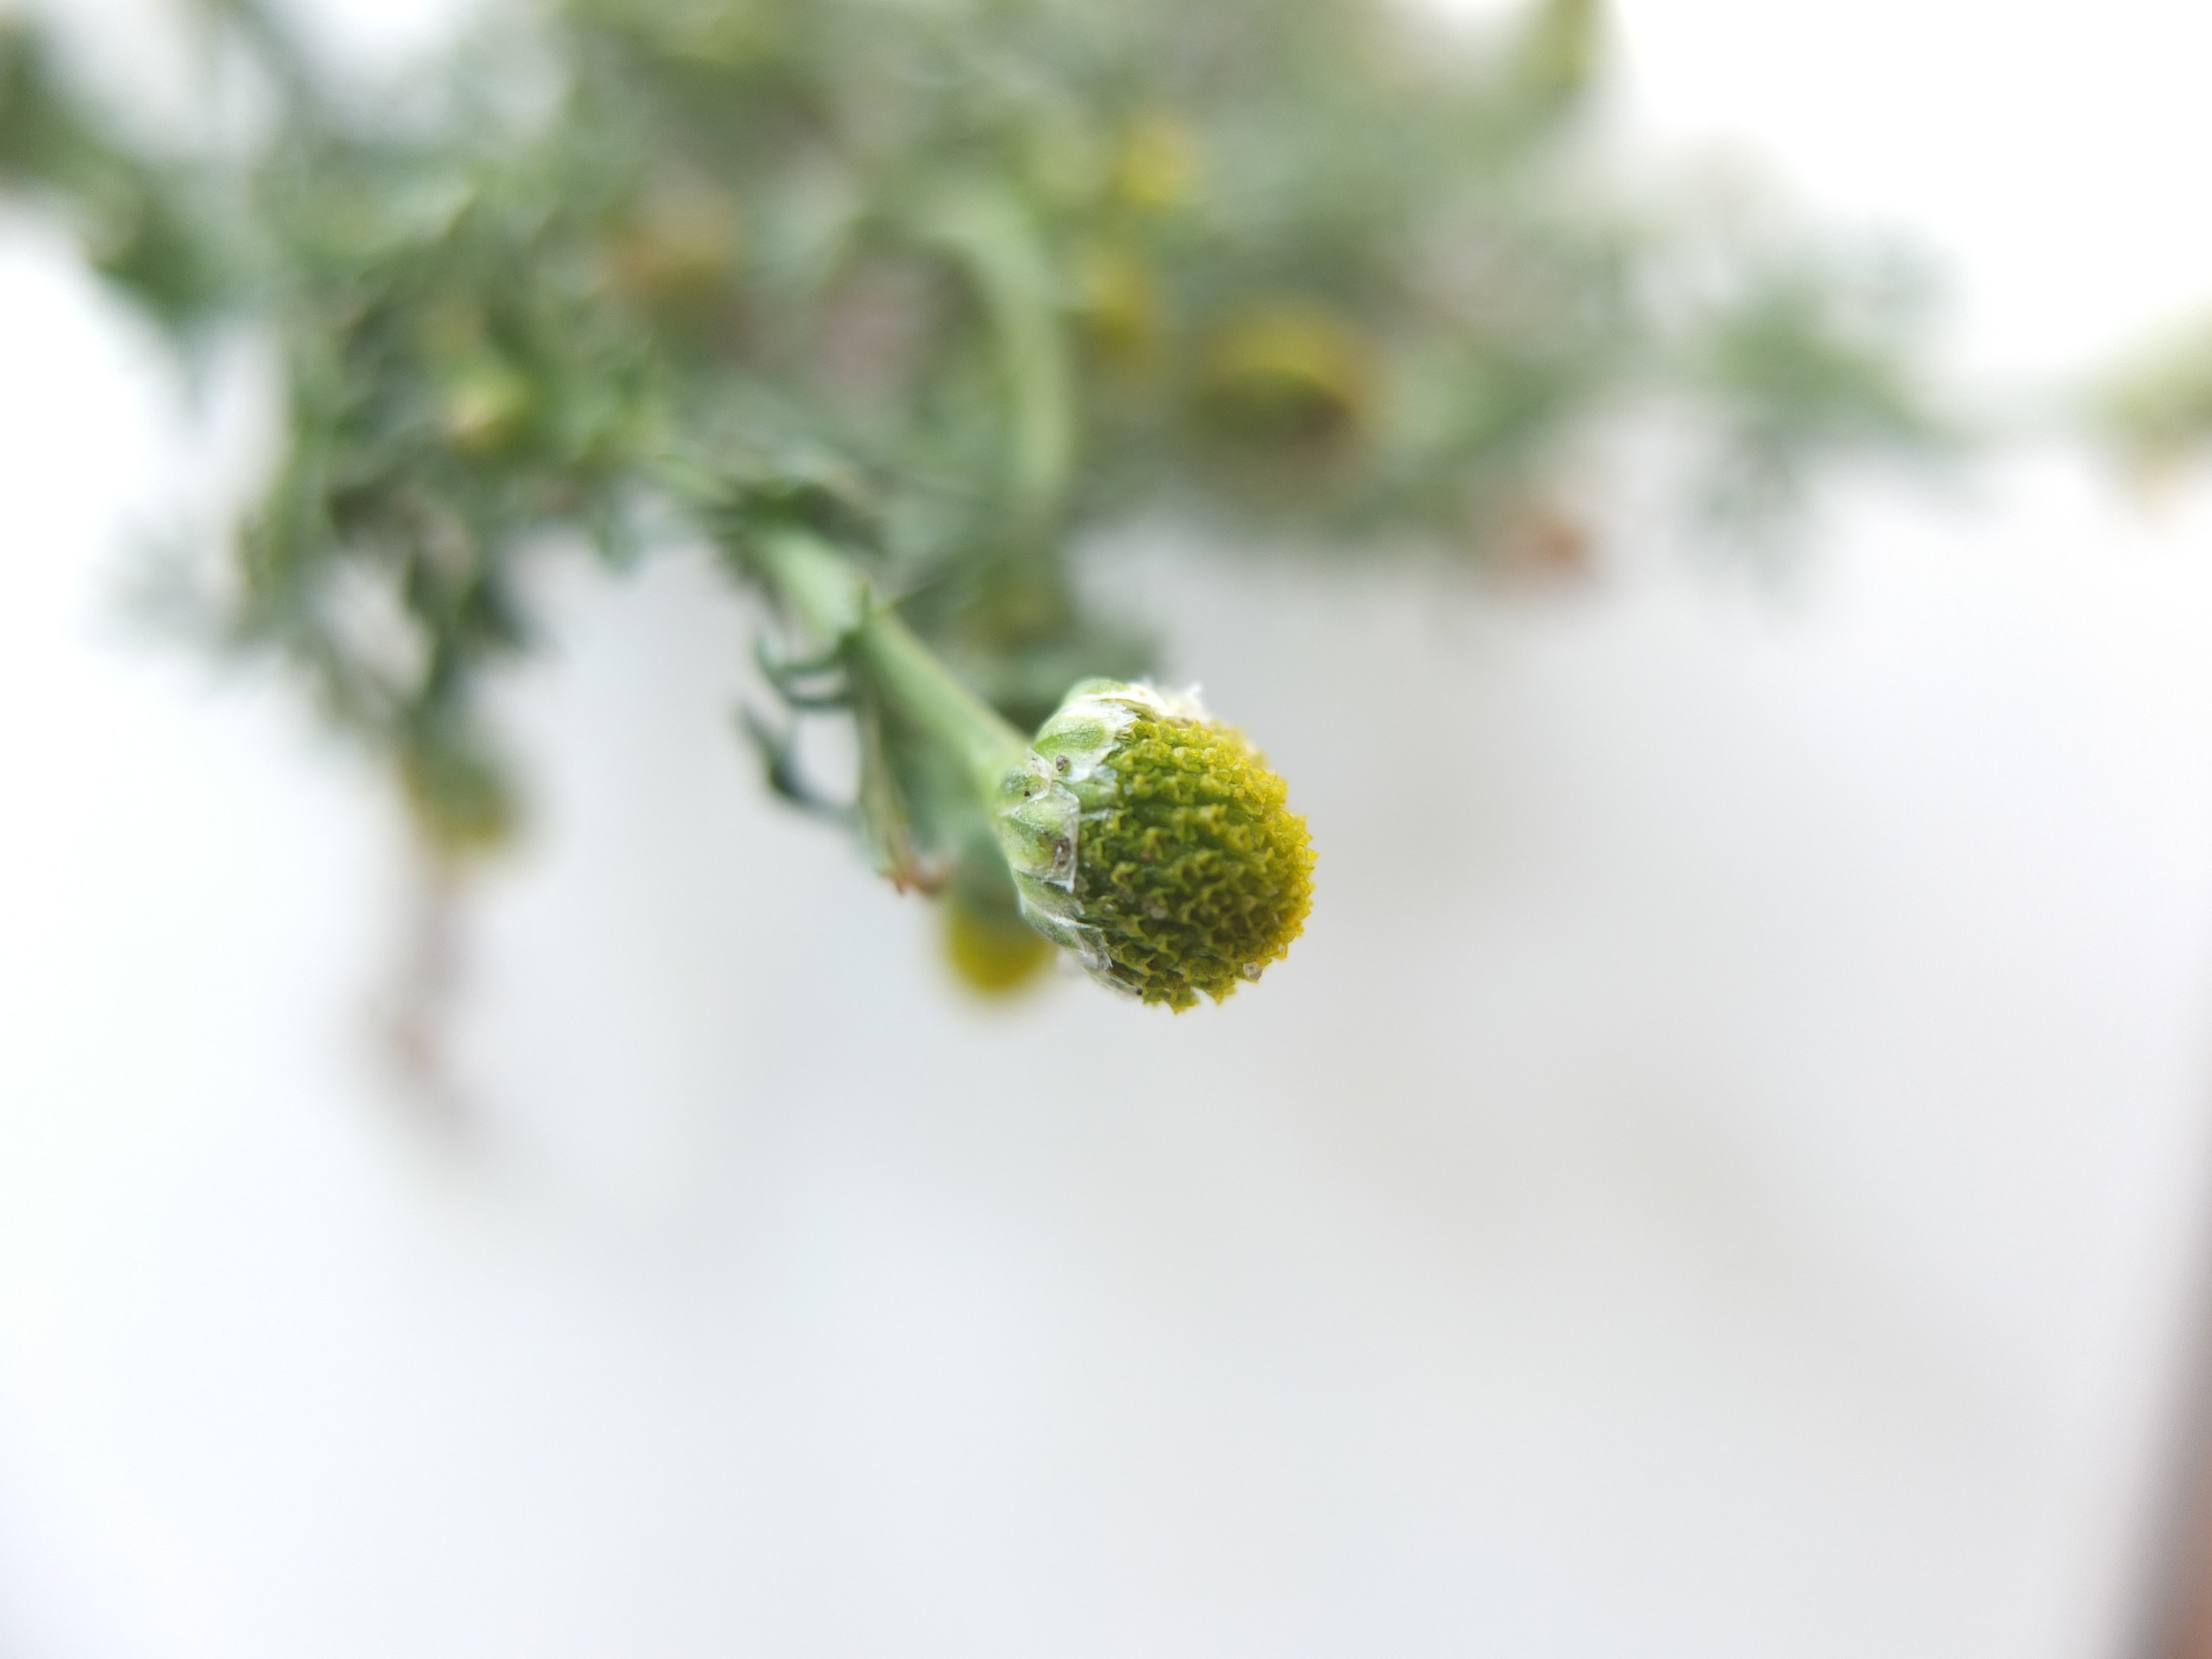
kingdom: Plantae
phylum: Tracheophyta
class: Magnoliopsida
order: Asterales
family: Asteraceae
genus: Matricaria
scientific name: Matricaria discoidea
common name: Skive-kamille
